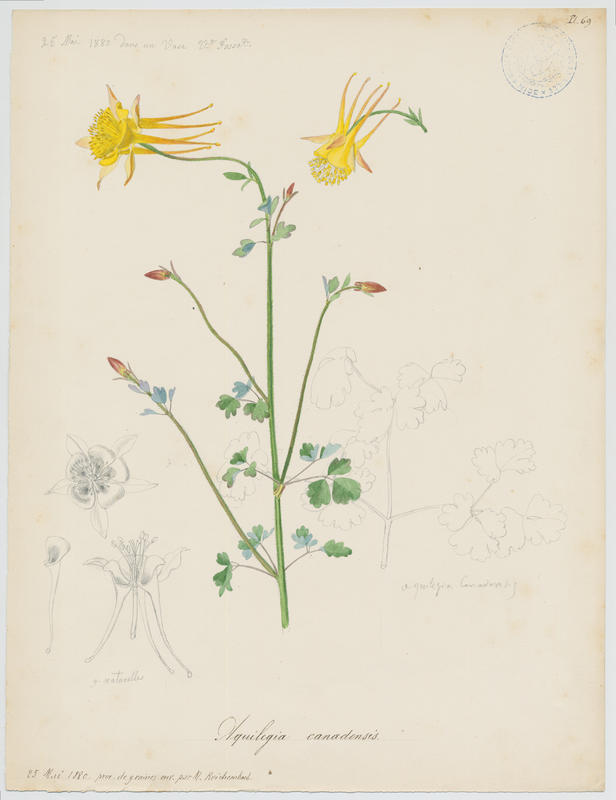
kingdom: Plantae
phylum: Tracheophyta
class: Magnoliopsida
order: Ranunculales
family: Ranunculaceae
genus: Aquilegia
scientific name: Aquilegia canadensis
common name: American columbine
